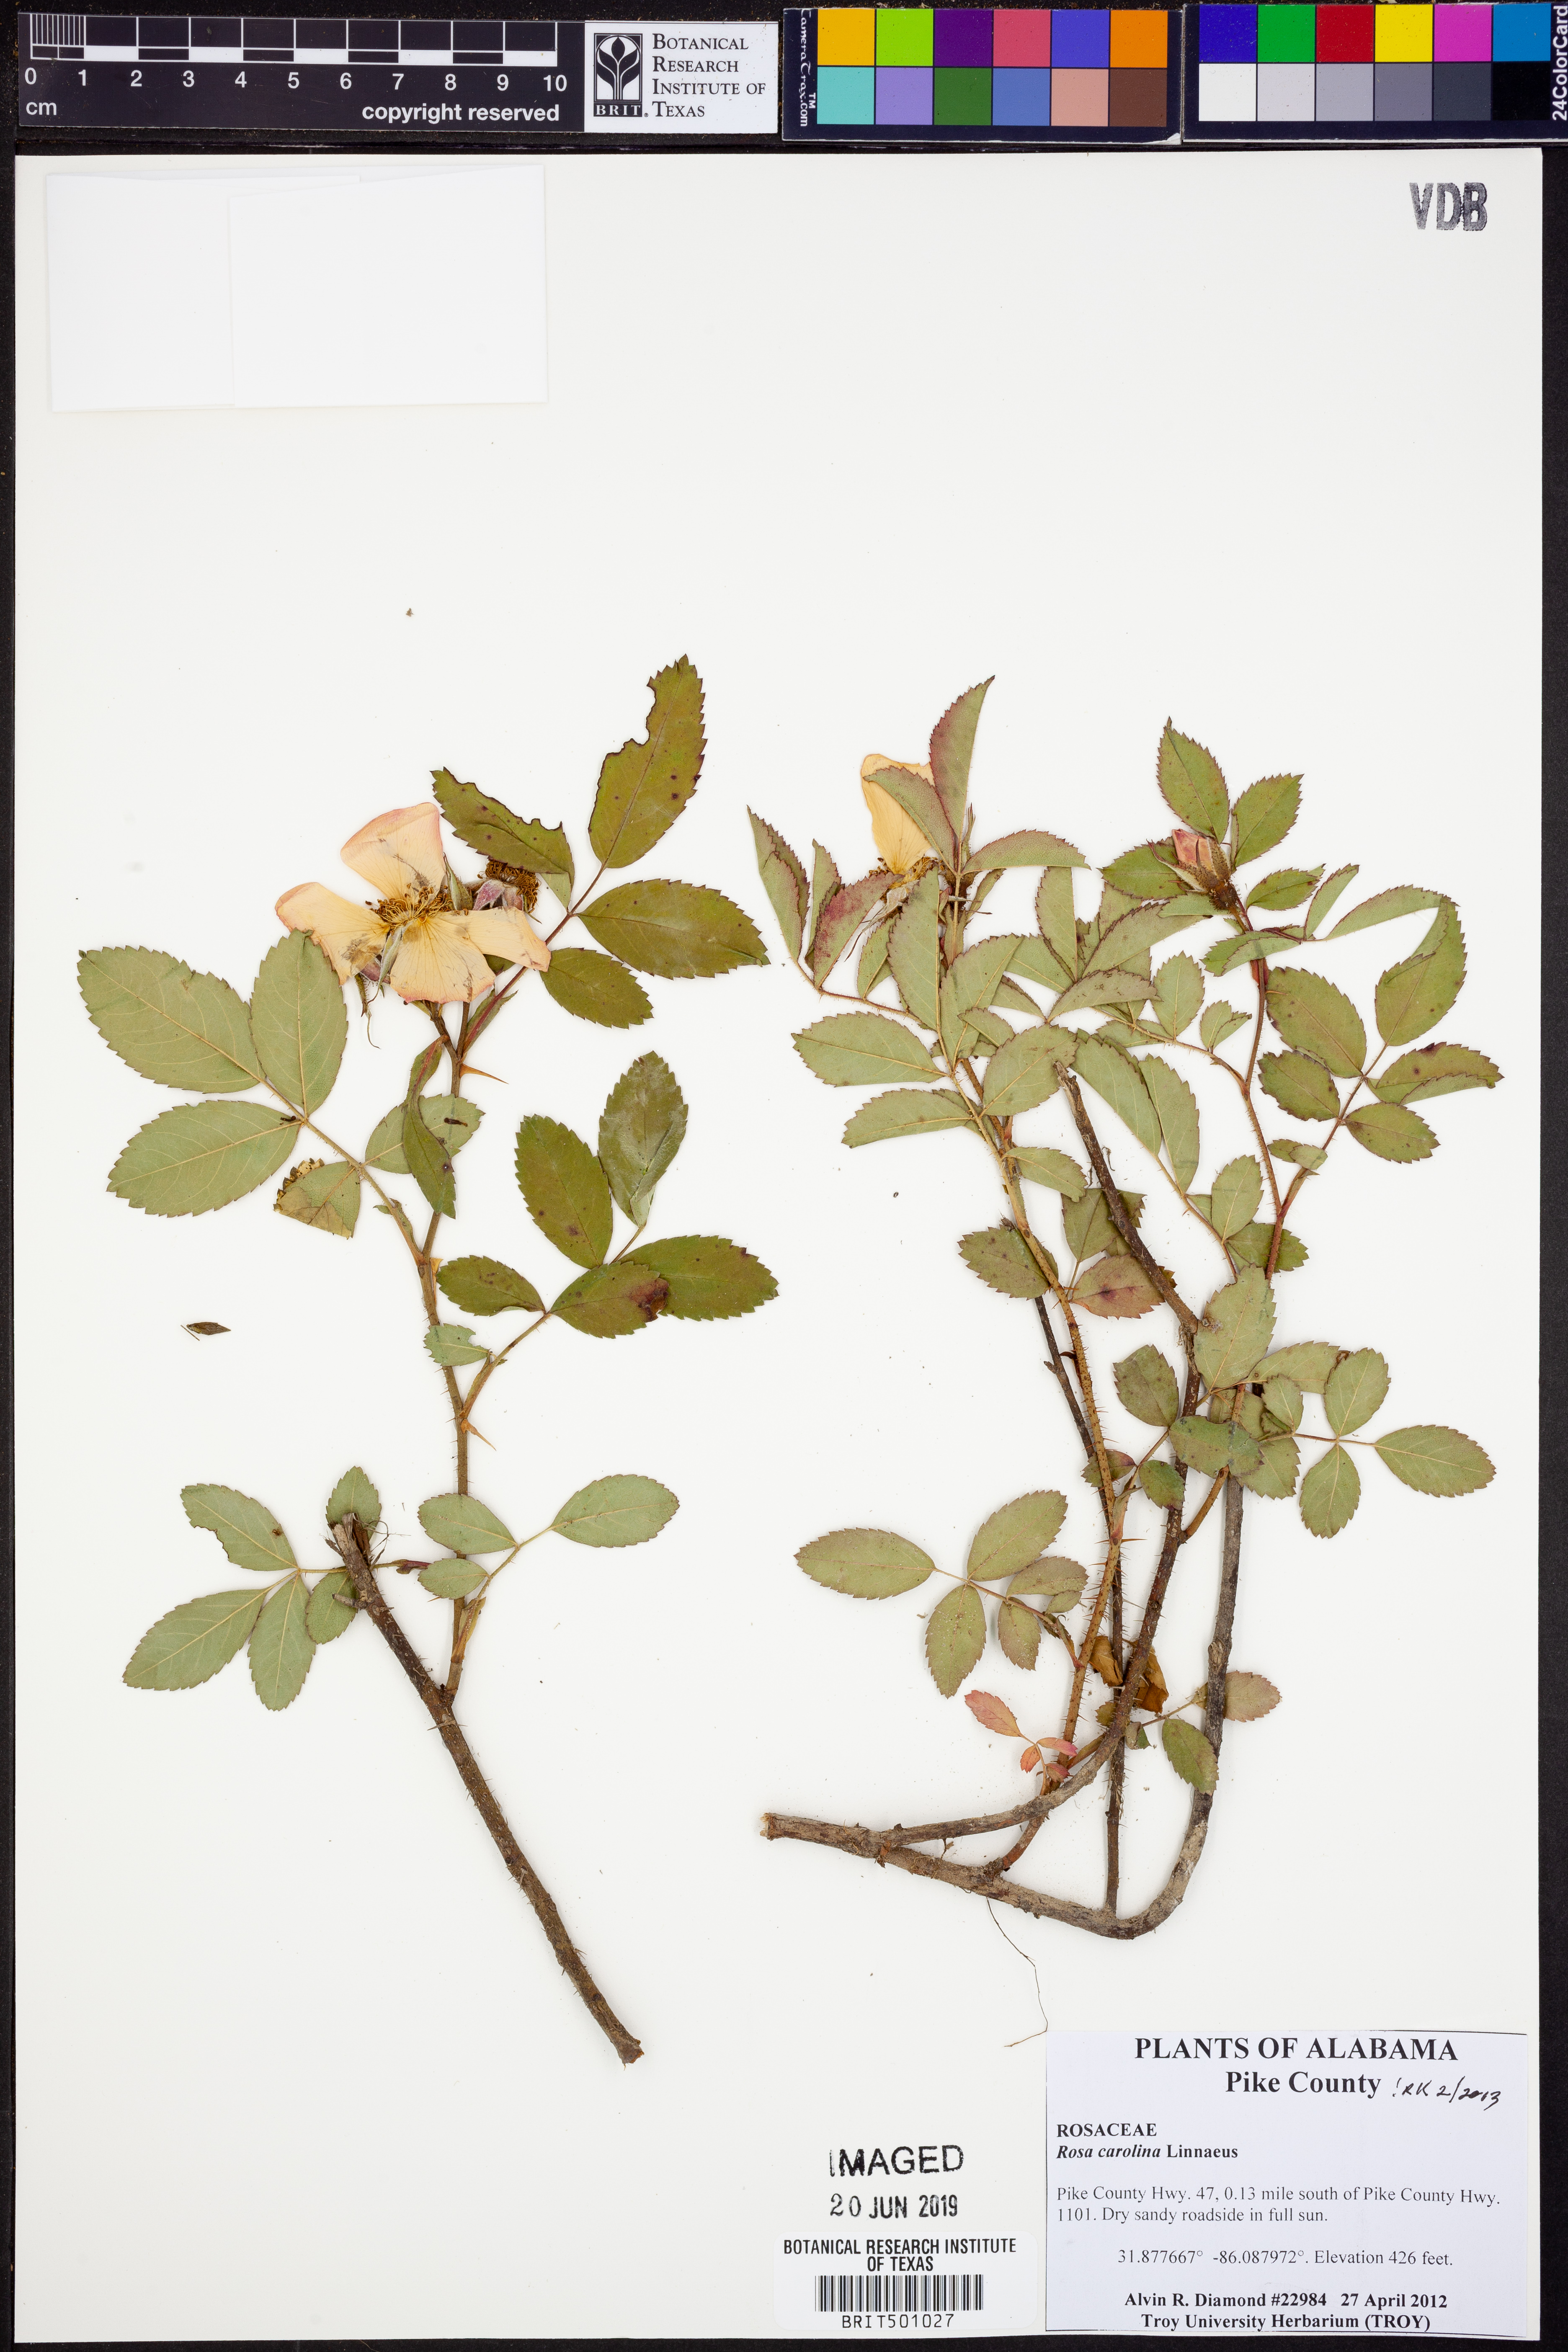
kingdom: Plantae
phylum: Tracheophyta
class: Magnoliopsida
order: Rosales
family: Rosaceae
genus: Rosa
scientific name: Rosa carolina
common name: Pasture rose
